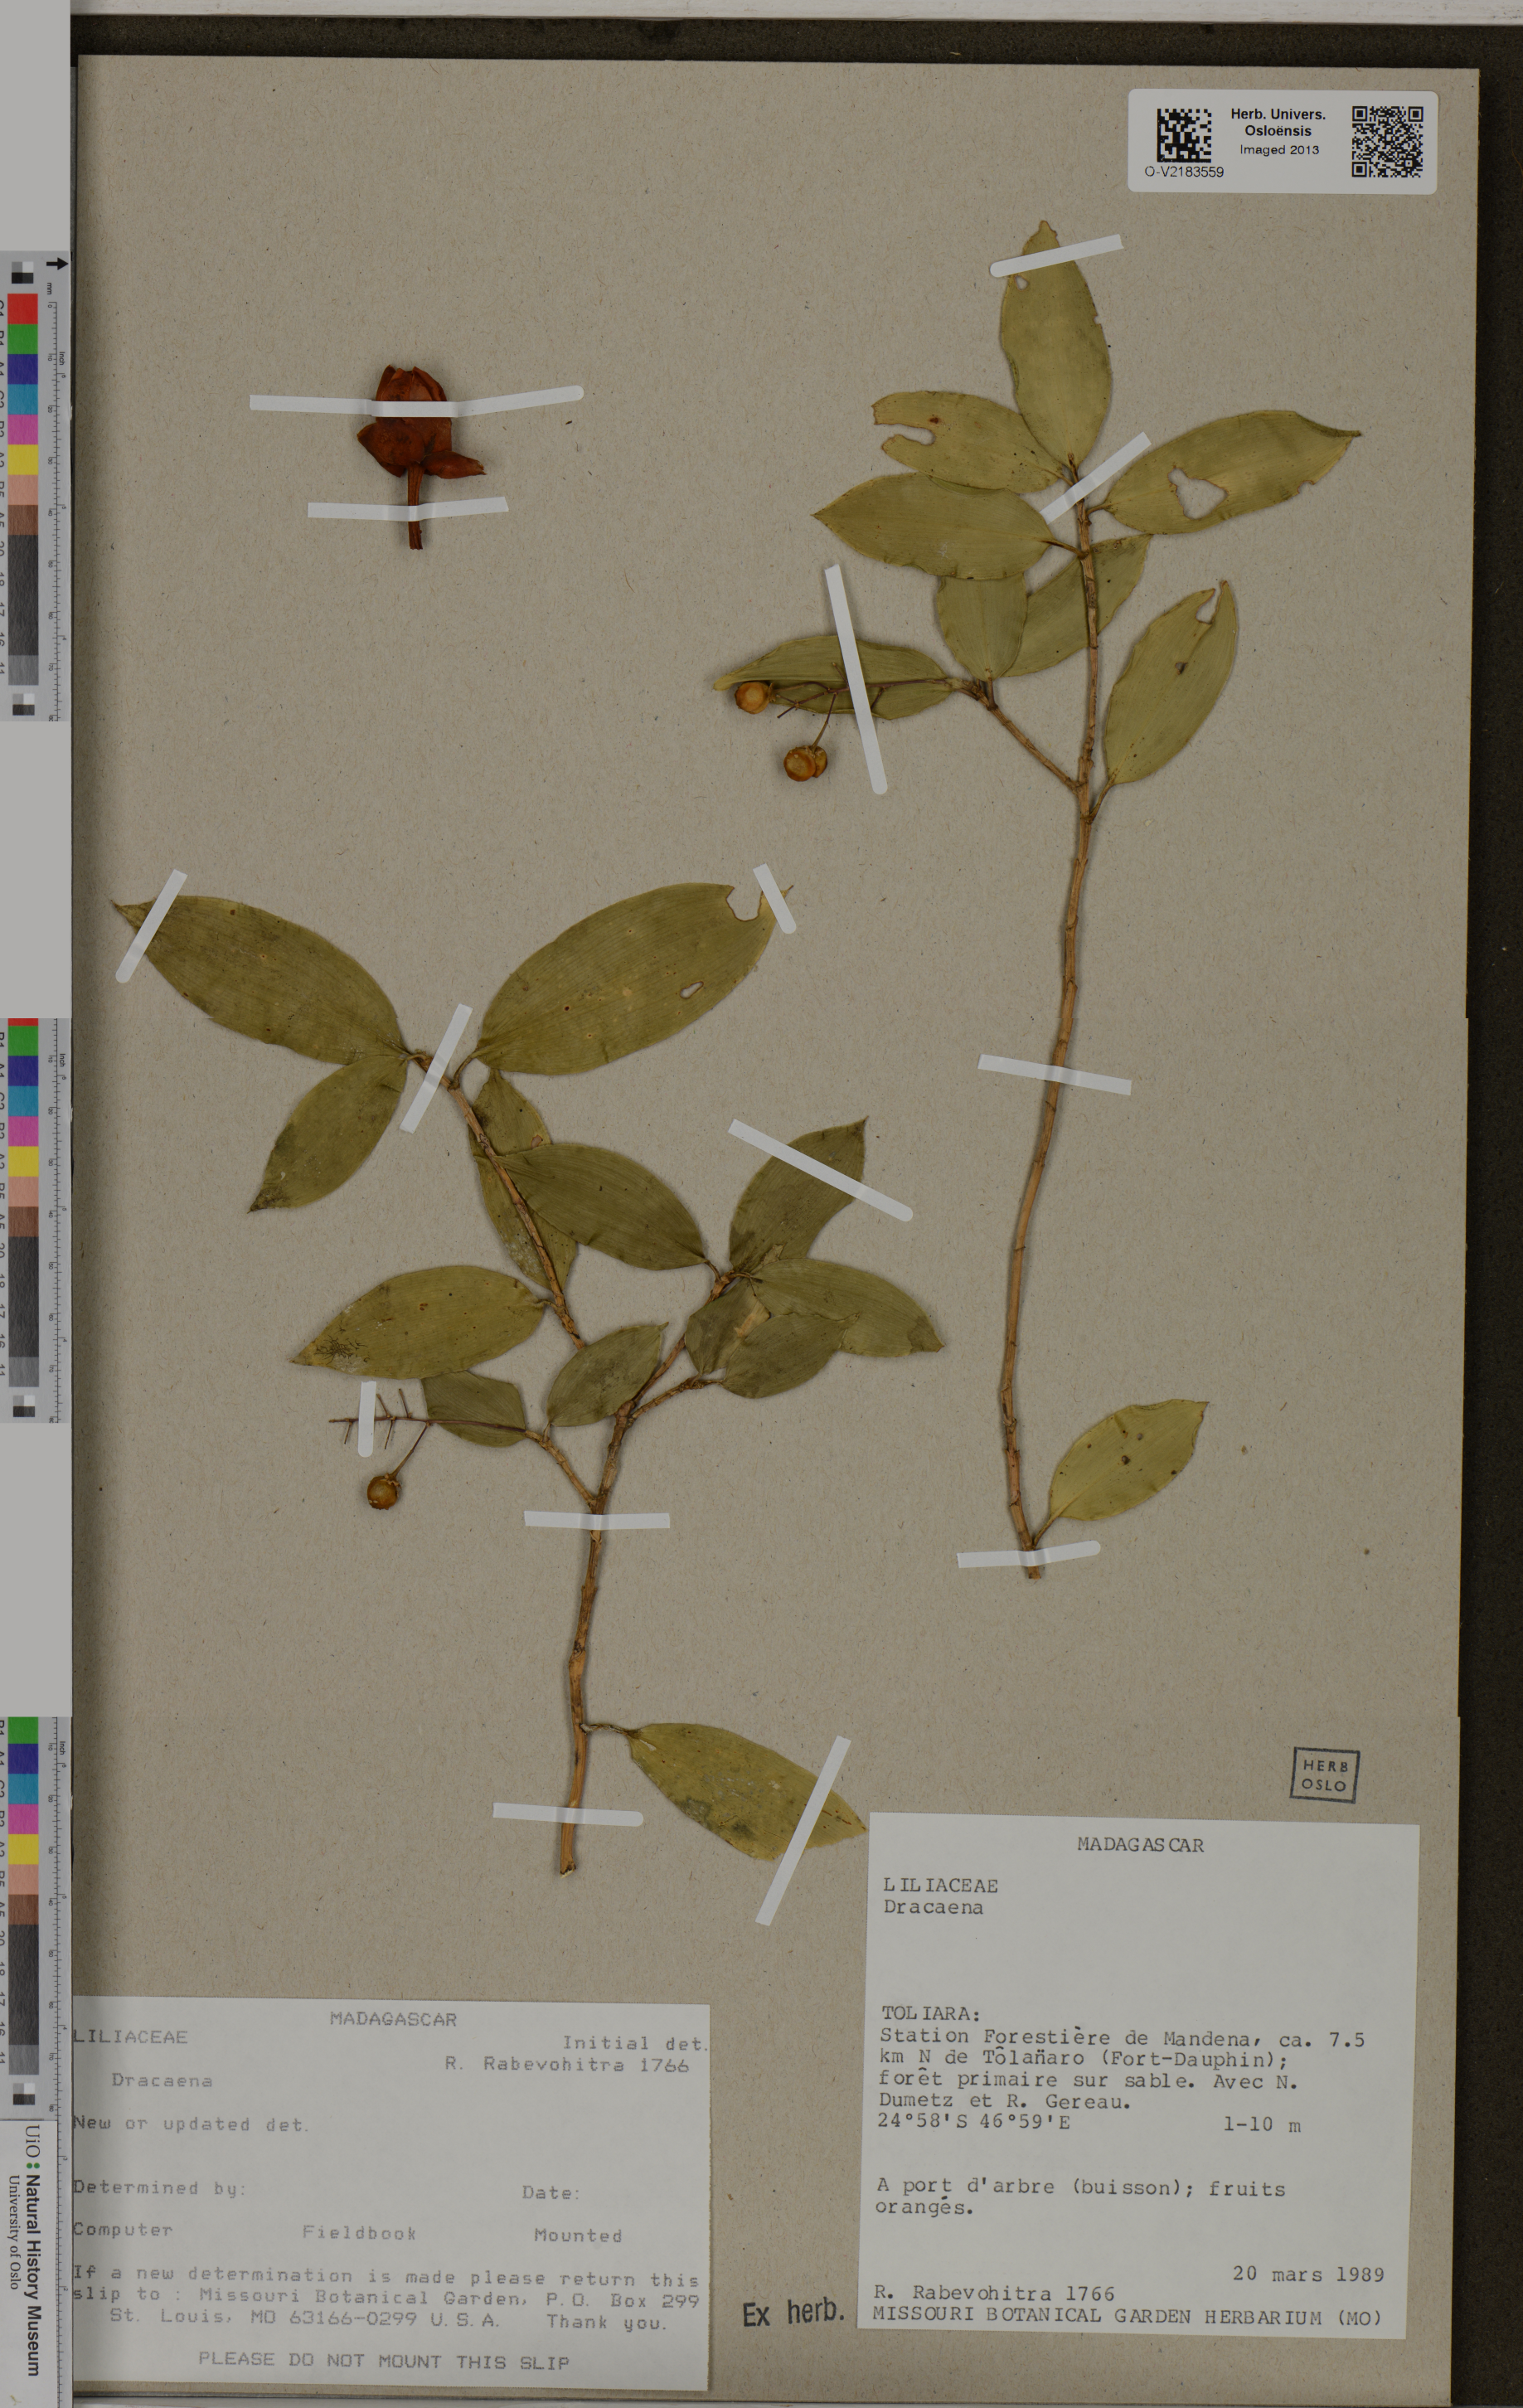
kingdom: Plantae
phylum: Tracheophyta
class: Liliopsida
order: Asparagales
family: Asparagaceae
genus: Dracaena
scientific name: Dracaena
